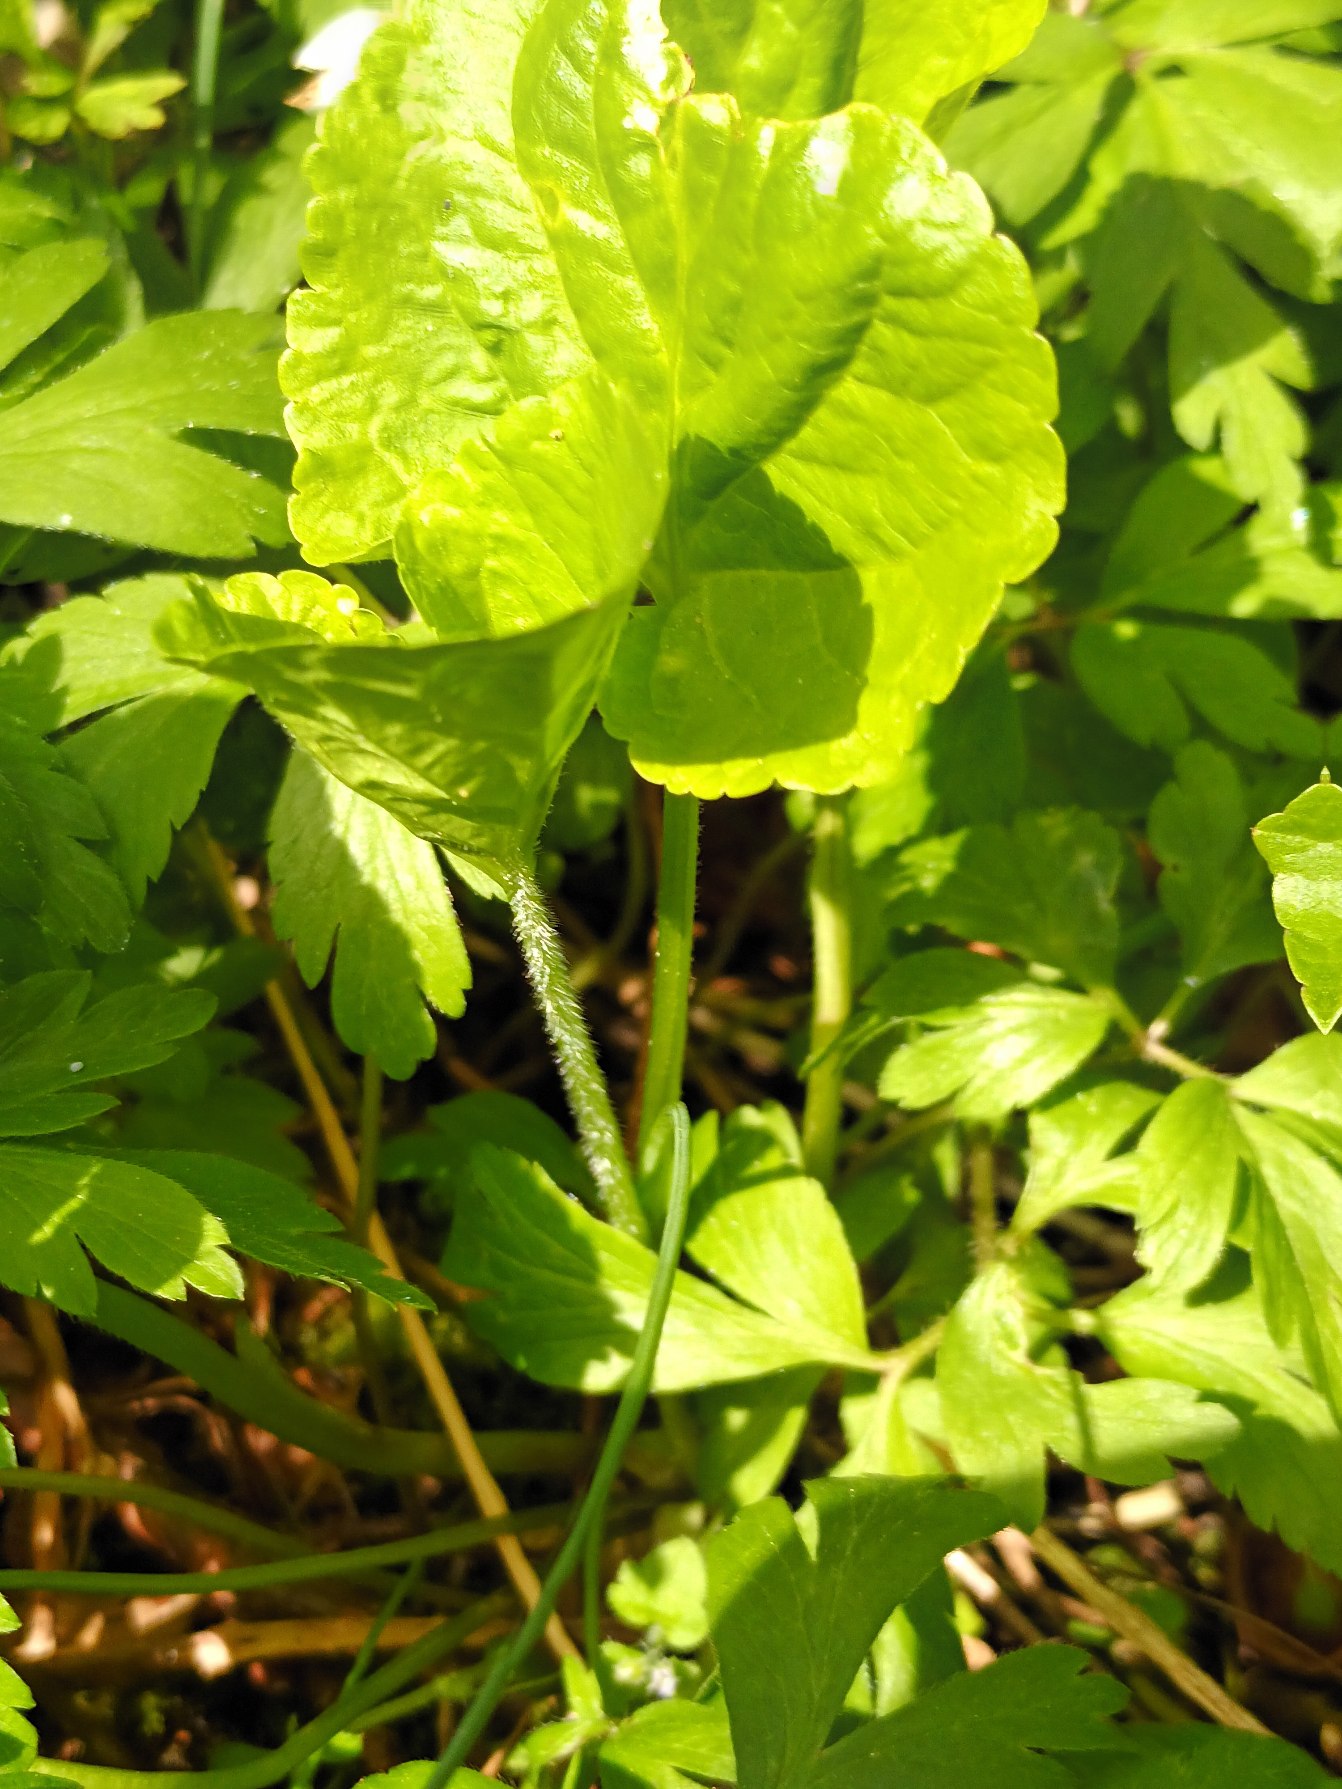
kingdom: Plantae
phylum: Tracheophyta
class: Magnoliopsida
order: Malpighiales
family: Violaceae
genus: Viola
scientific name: Viola mirabilis
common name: Forskelligblomstret viol
